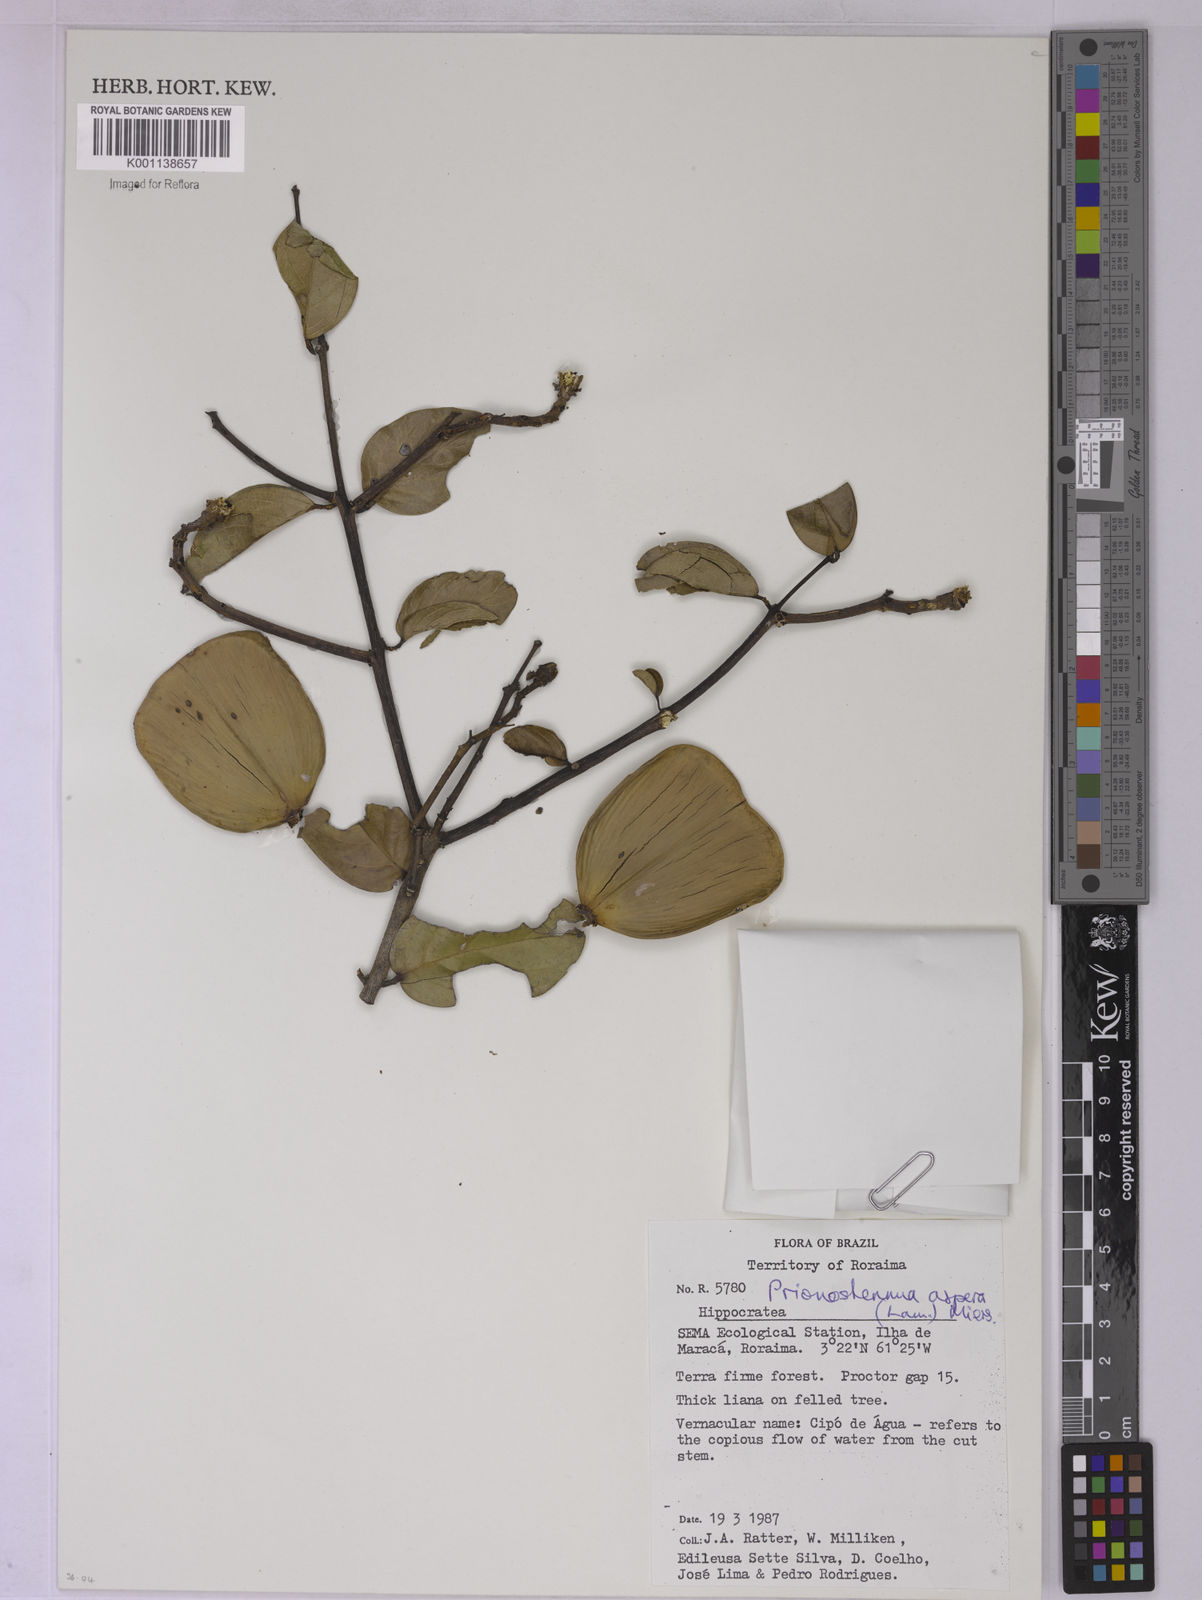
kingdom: Plantae
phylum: Tracheophyta
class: Magnoliopsida
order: Celastrales
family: Celastraceae
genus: Prionostemma
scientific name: Prionostemma aspera
